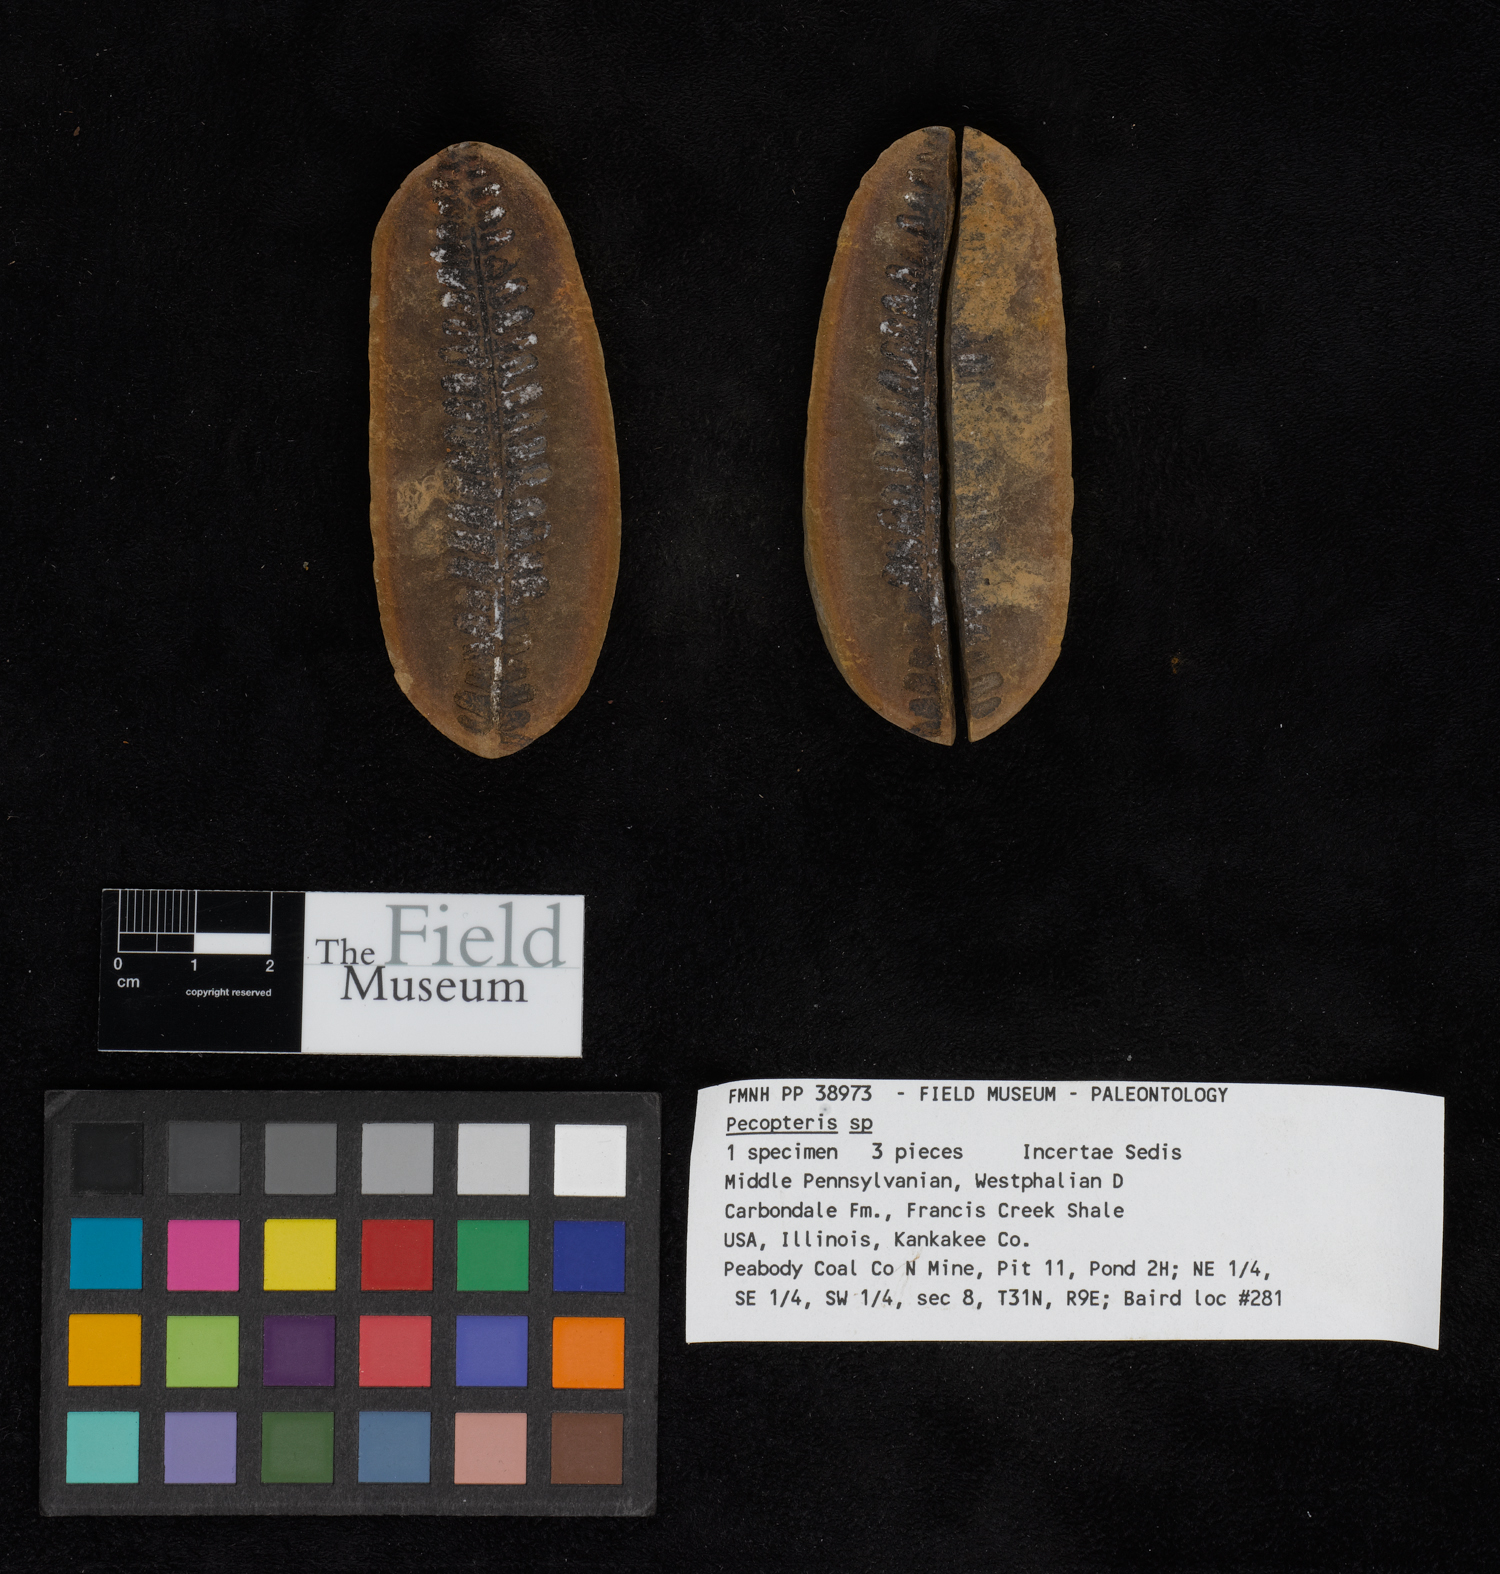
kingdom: Plantae
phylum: Tracheophyta
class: Polypodiopsida
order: Marattiales
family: Asterothecaceae
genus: Pecopteris
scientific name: Pecopteris
